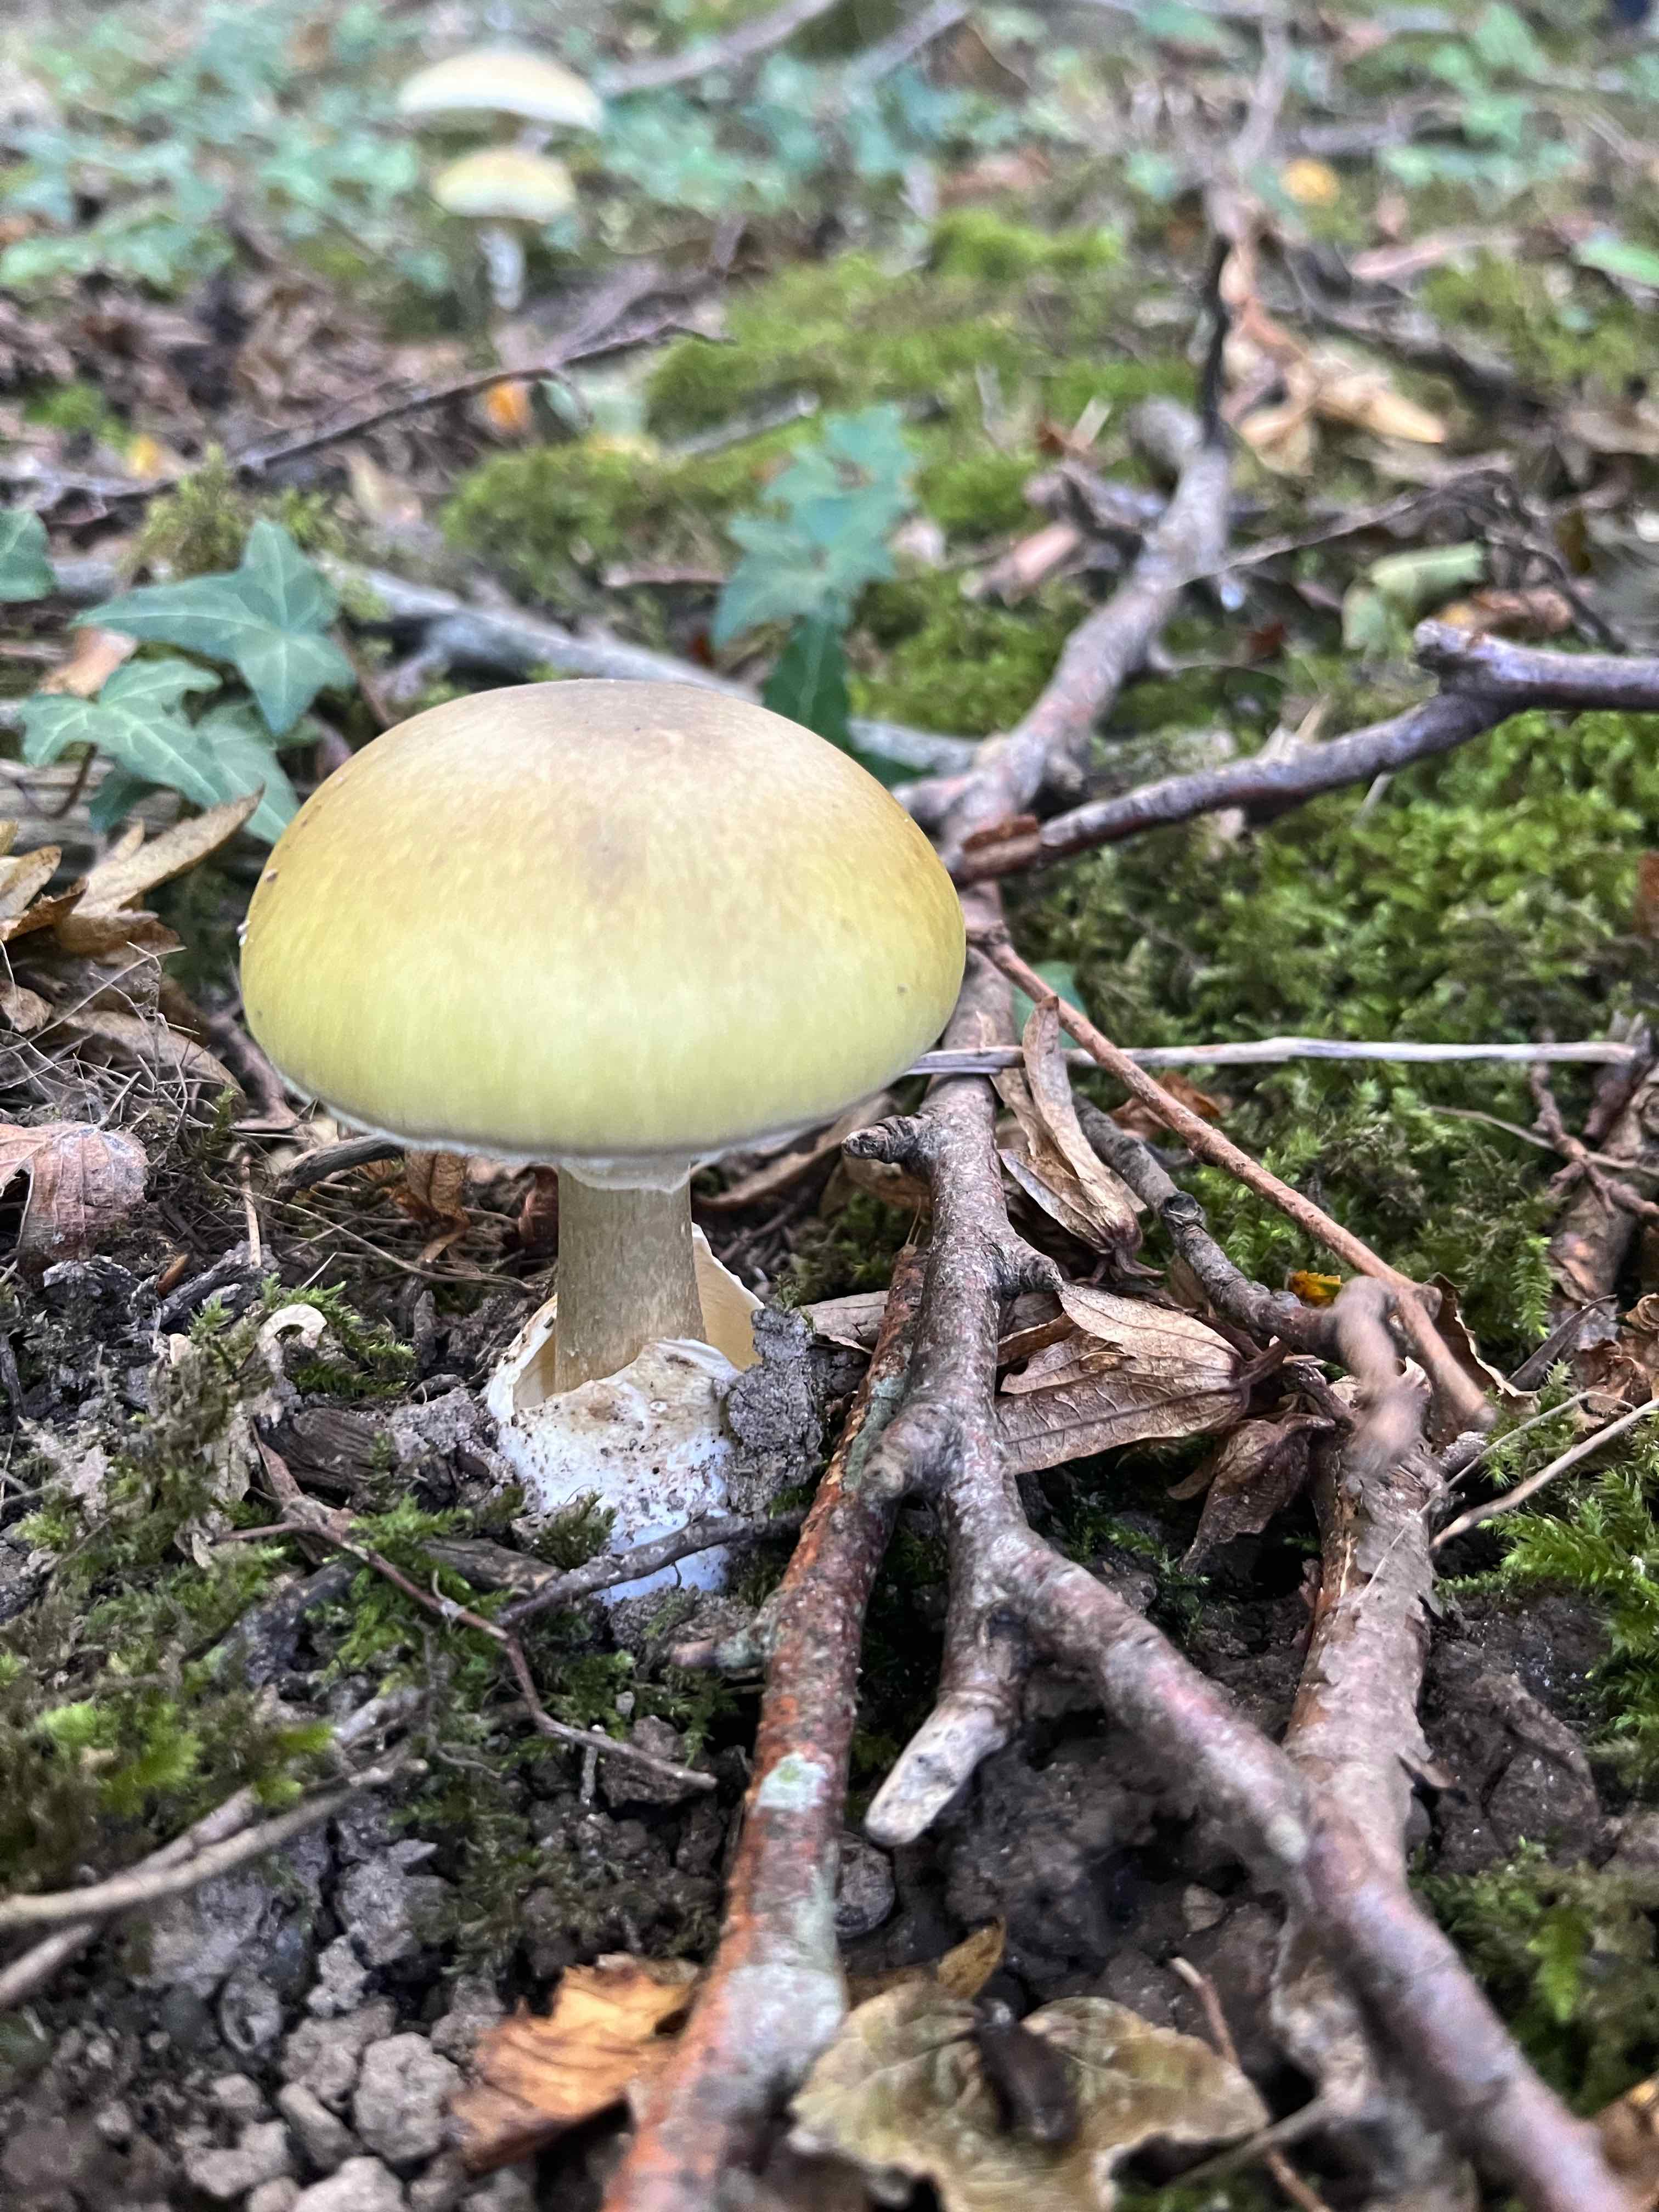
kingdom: Fungi
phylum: Basidiomycota
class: Agaricomycetes
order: Agaricales
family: Amanitaceae
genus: Amanita
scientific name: Amanita phalloides
